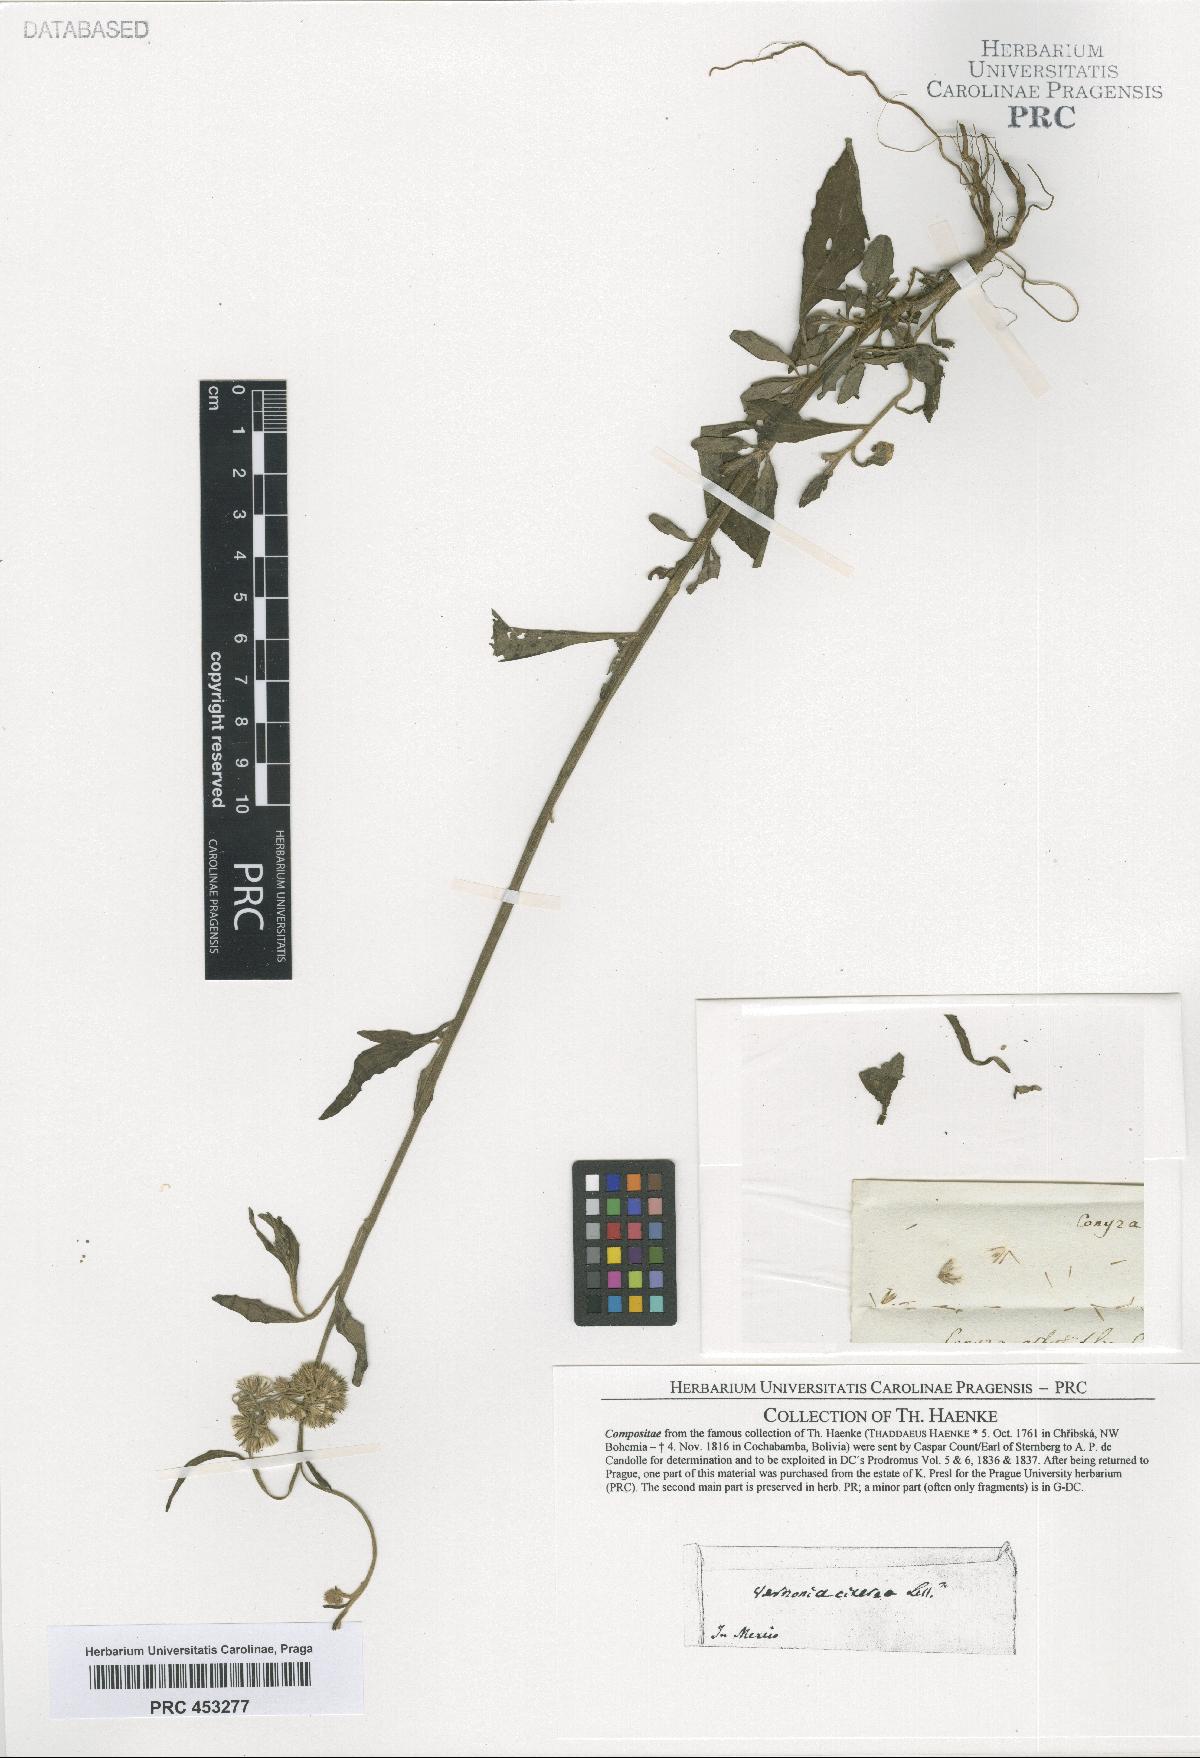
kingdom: Plantae
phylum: Tracheophyta
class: Magnoliopsida
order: Asterales
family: Asteraceae
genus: Vernonia
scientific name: Vernonia
